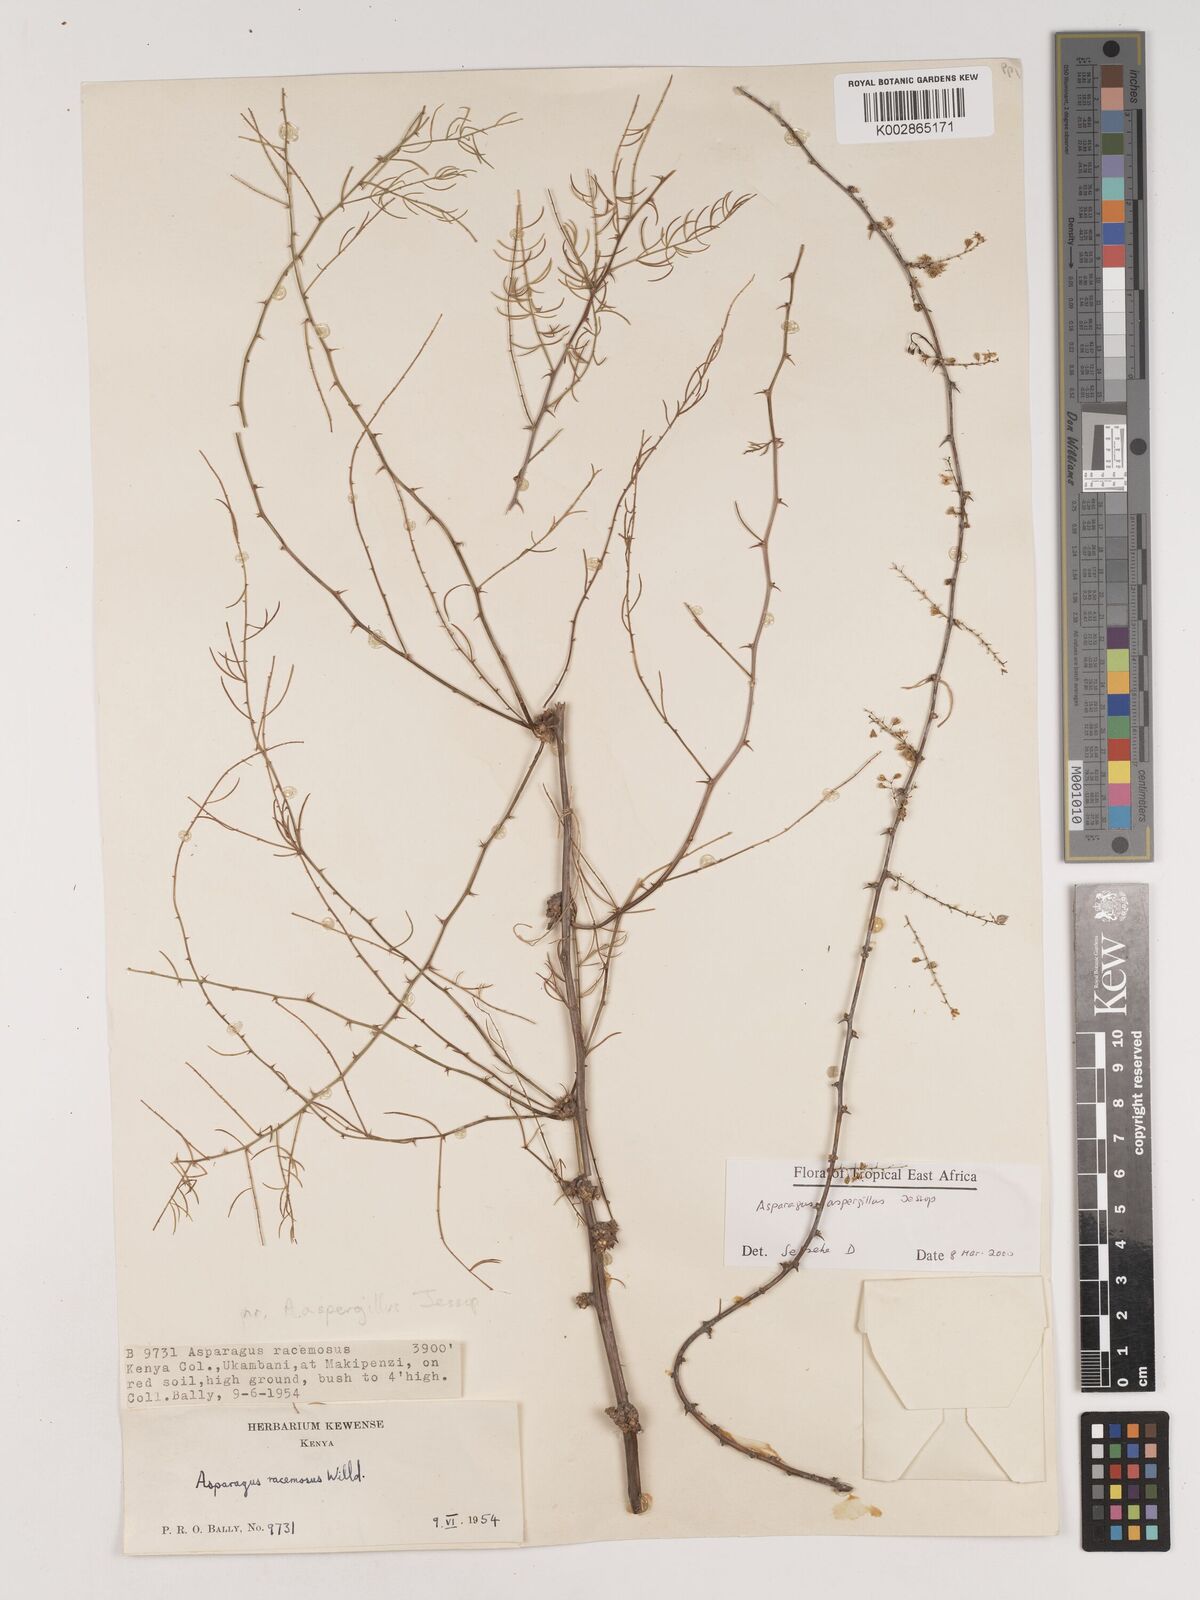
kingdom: Plantae
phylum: Tracheophyta
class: Liliopsida
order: Asparagales
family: Asparagaceae
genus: Asparagus
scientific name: Asparagus aspergillus
